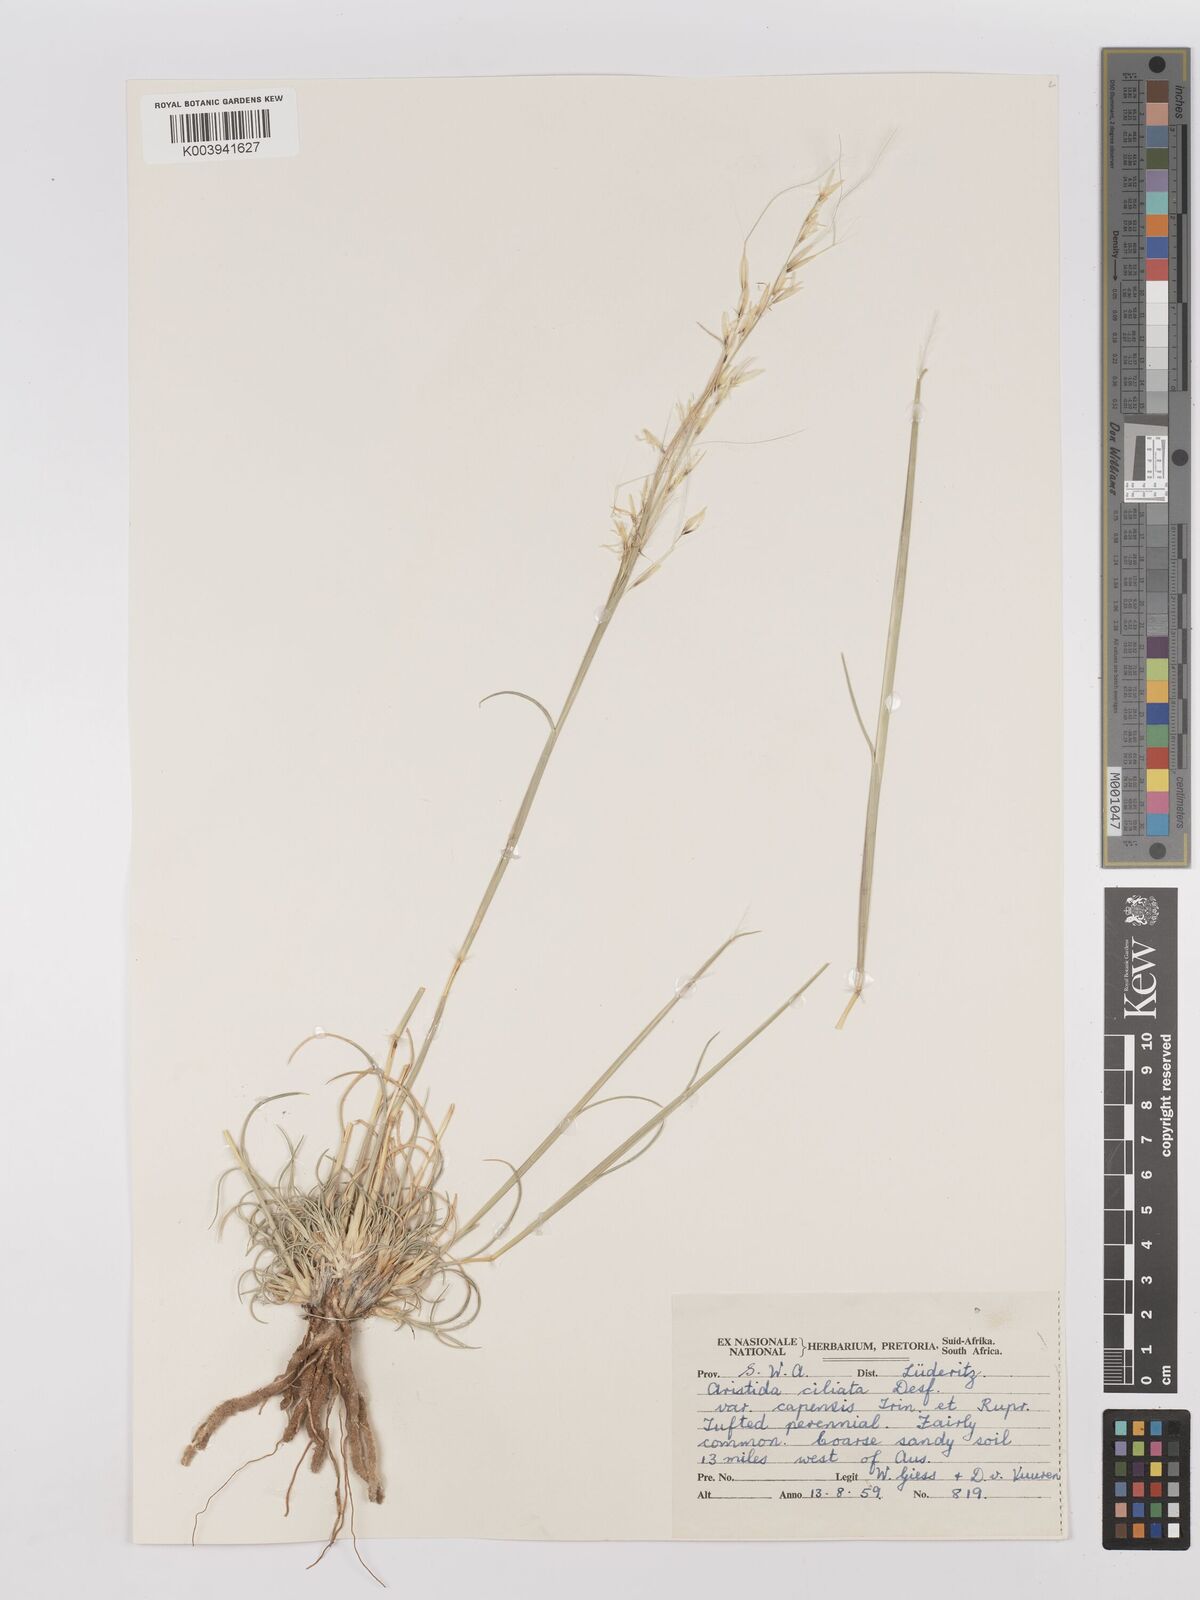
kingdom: Plantae
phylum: Tracheophyta
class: Liliopsida
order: Poales
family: Poaceae
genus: Stipagrostis
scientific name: Stipagrostis ciliata
